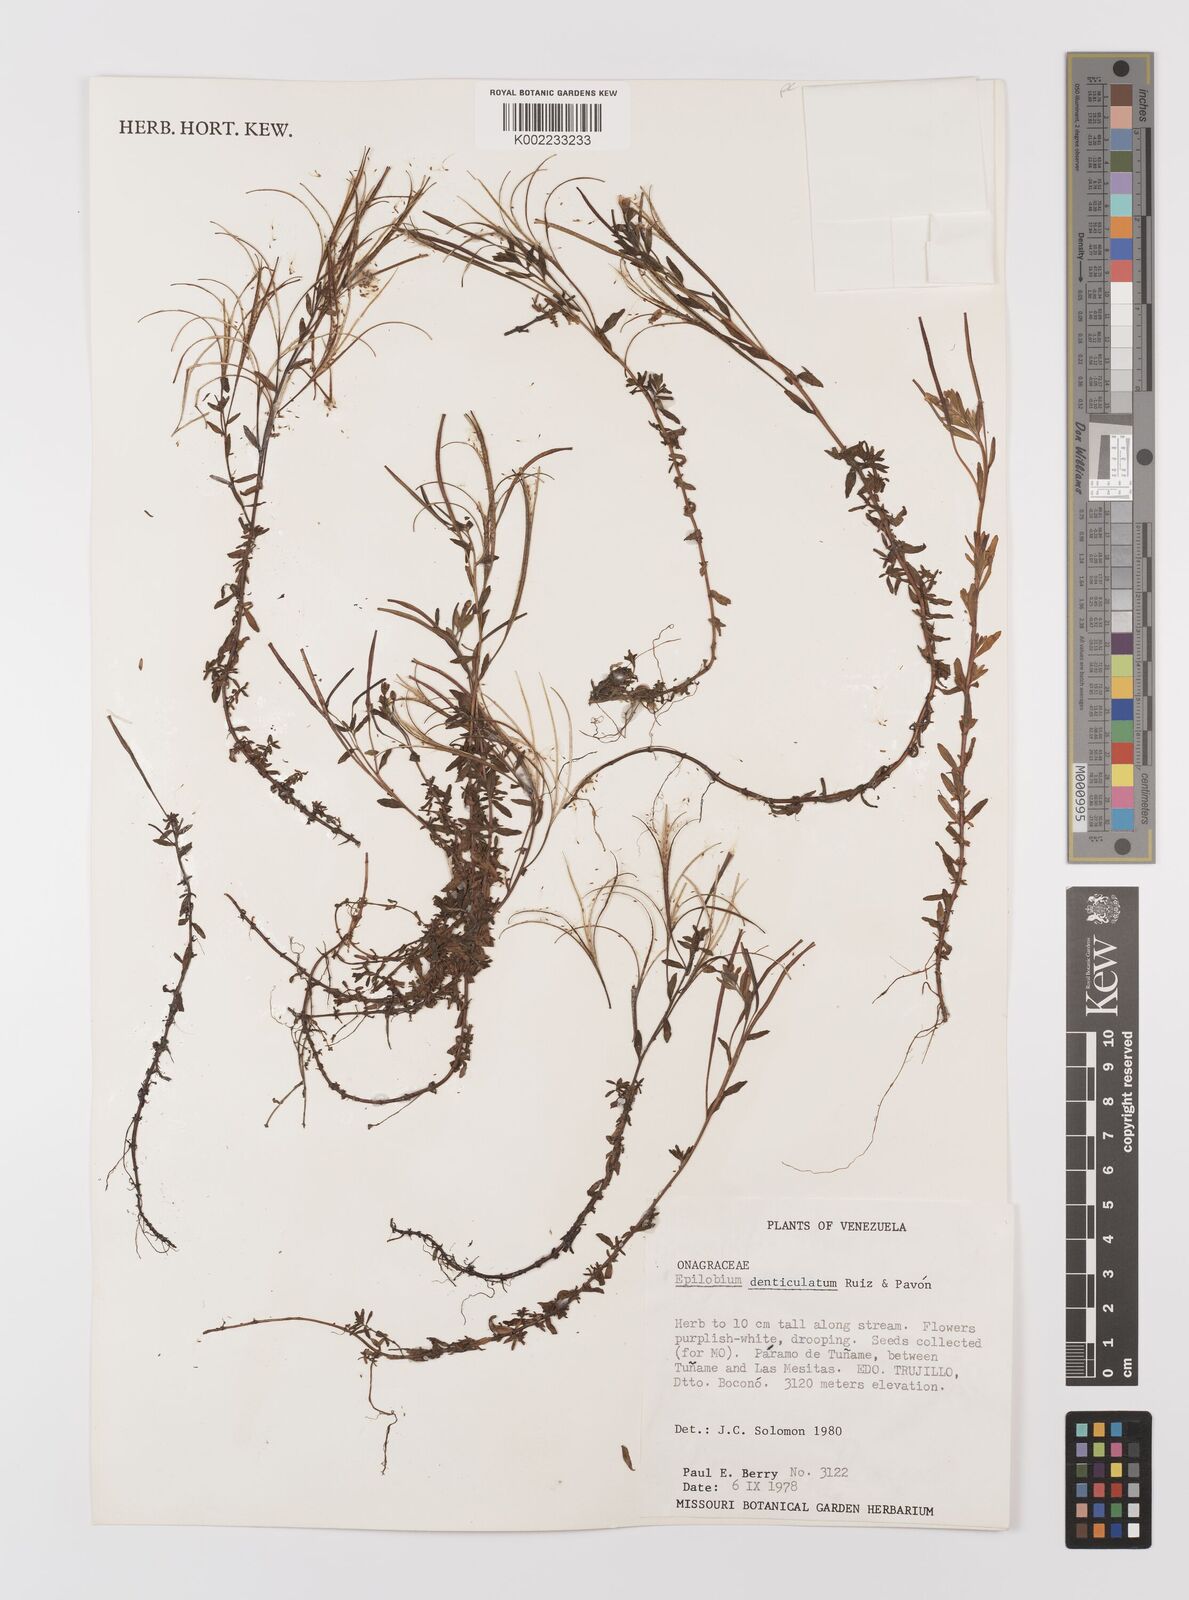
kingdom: Plantae
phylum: Tracheophyta
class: Magnoliopsida
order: Myrtales
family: Onagraceae
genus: Epilobium
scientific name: Epilobium denticulatum
